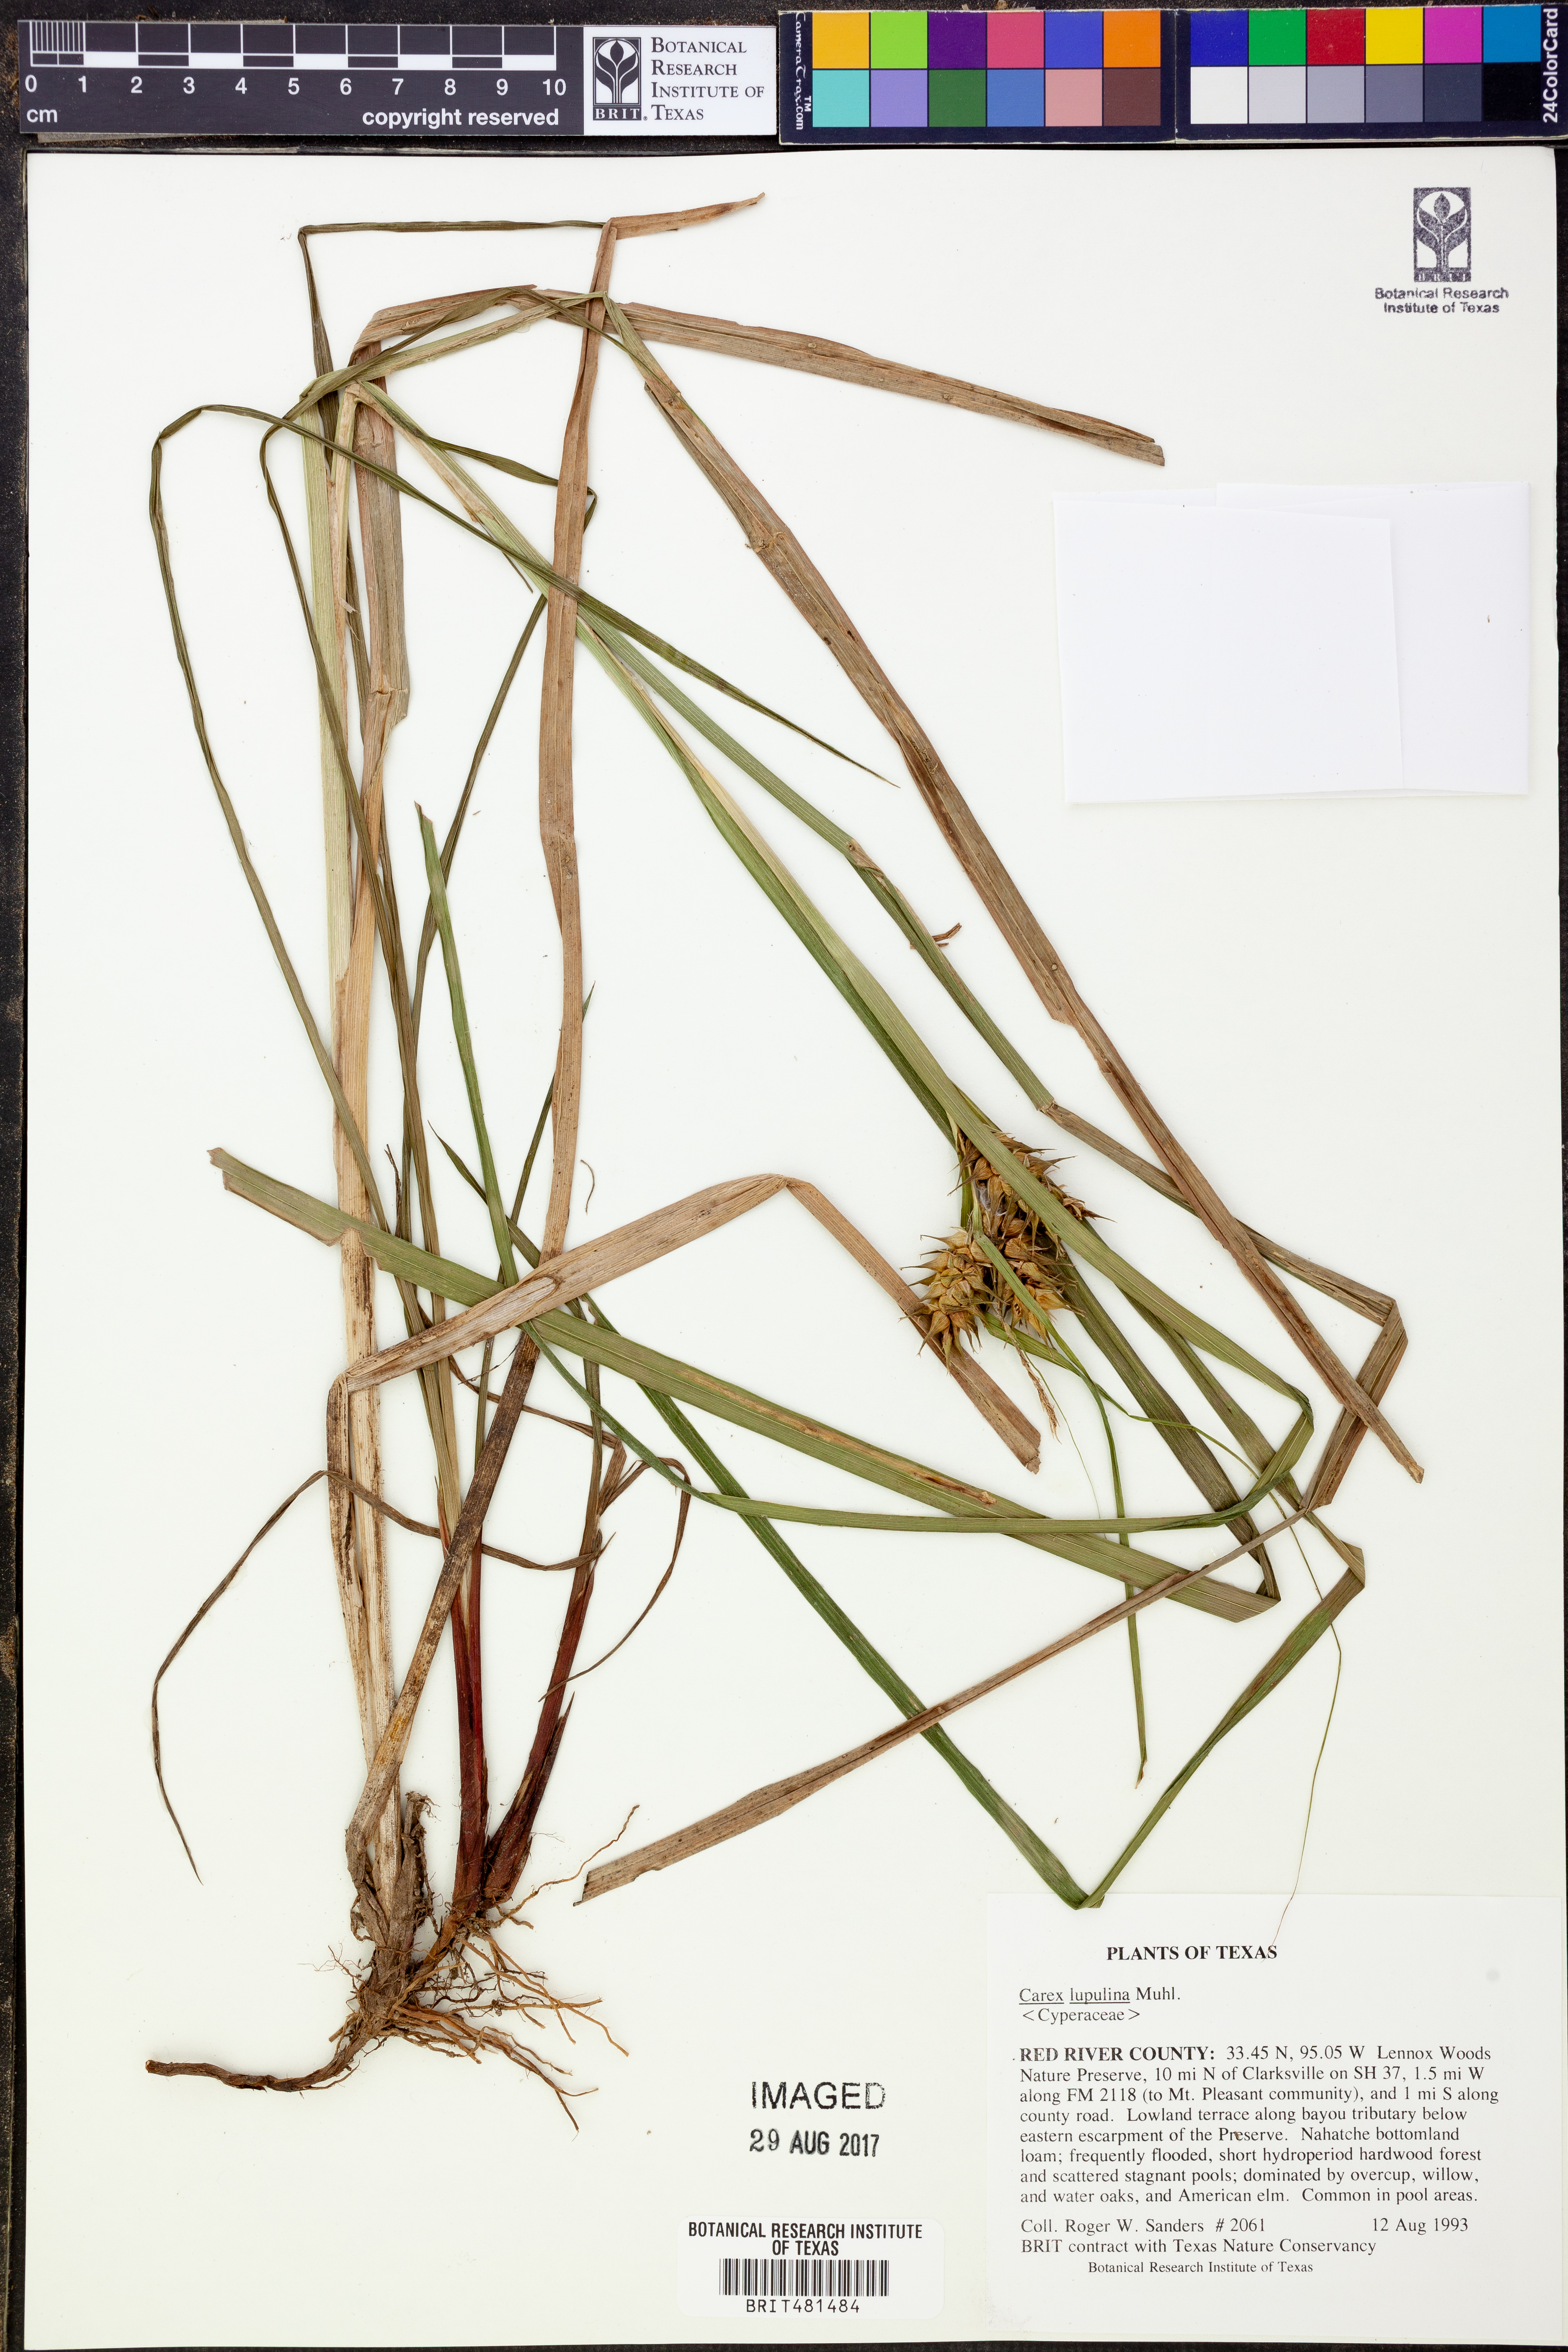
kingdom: Plantae
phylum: Tracheophyta
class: Liliopsida
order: Poales
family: Cyperaceae
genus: Carex
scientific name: Carex lupulina
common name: Hop sedge
